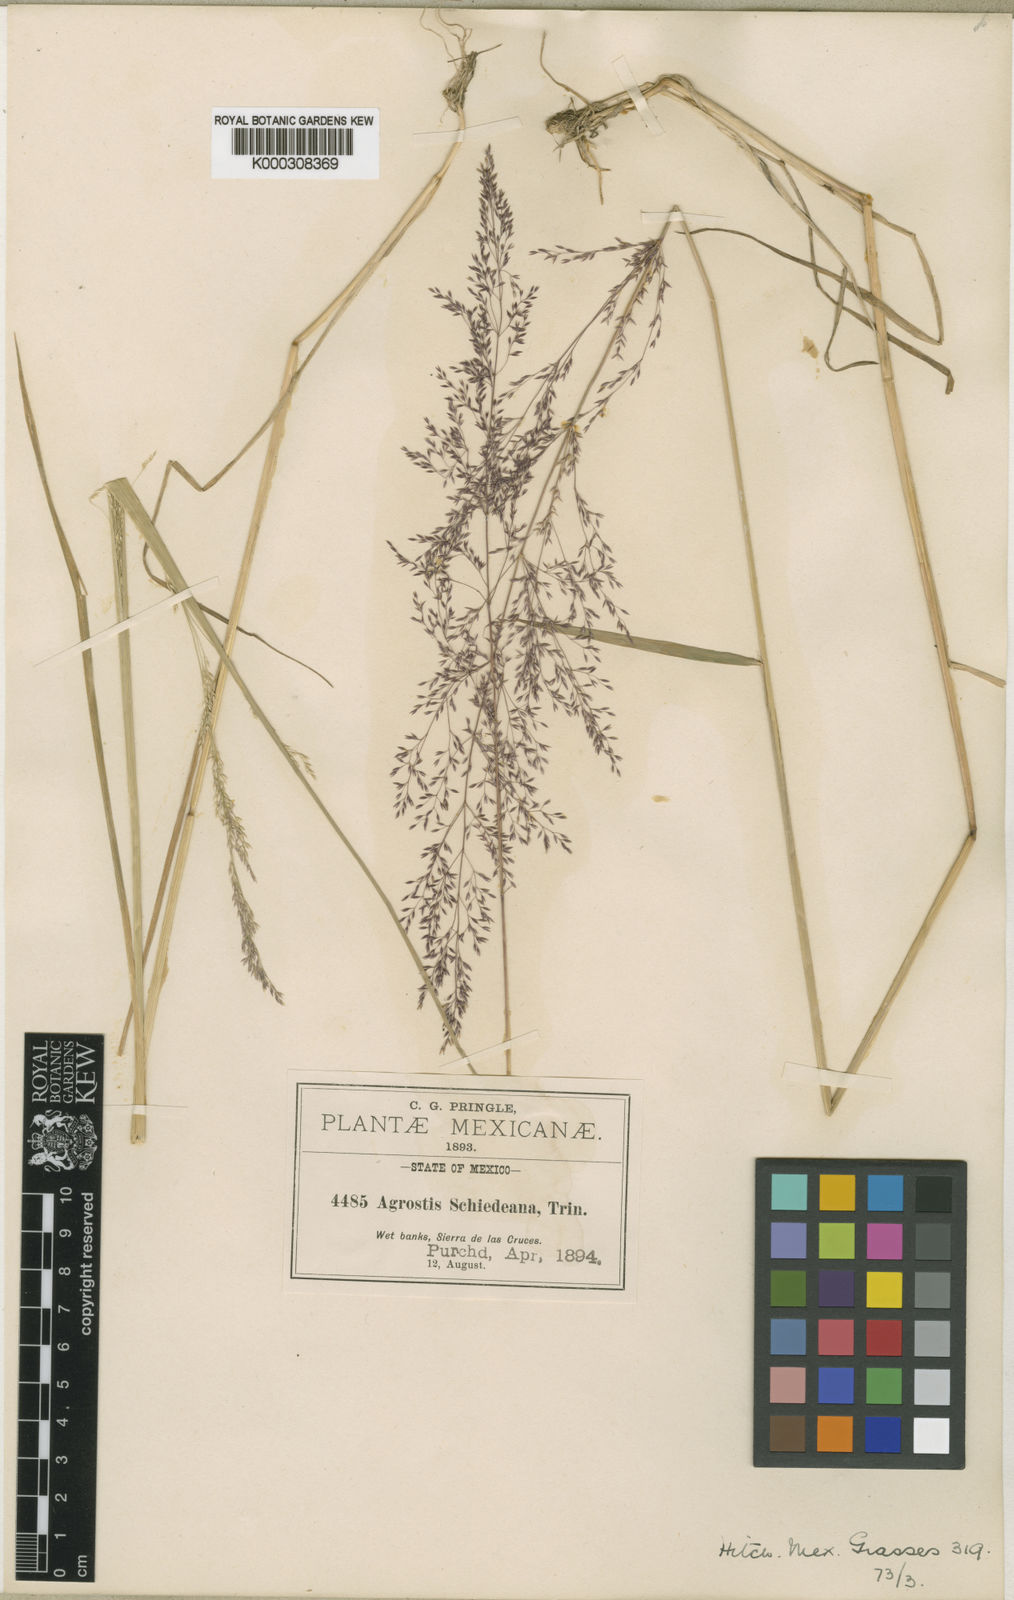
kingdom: Plantae
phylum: Tracheophyta
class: Liliopsida
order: Poales
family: Poaceae
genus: Agrostis
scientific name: Agrostis perennans
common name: Autumn bent
